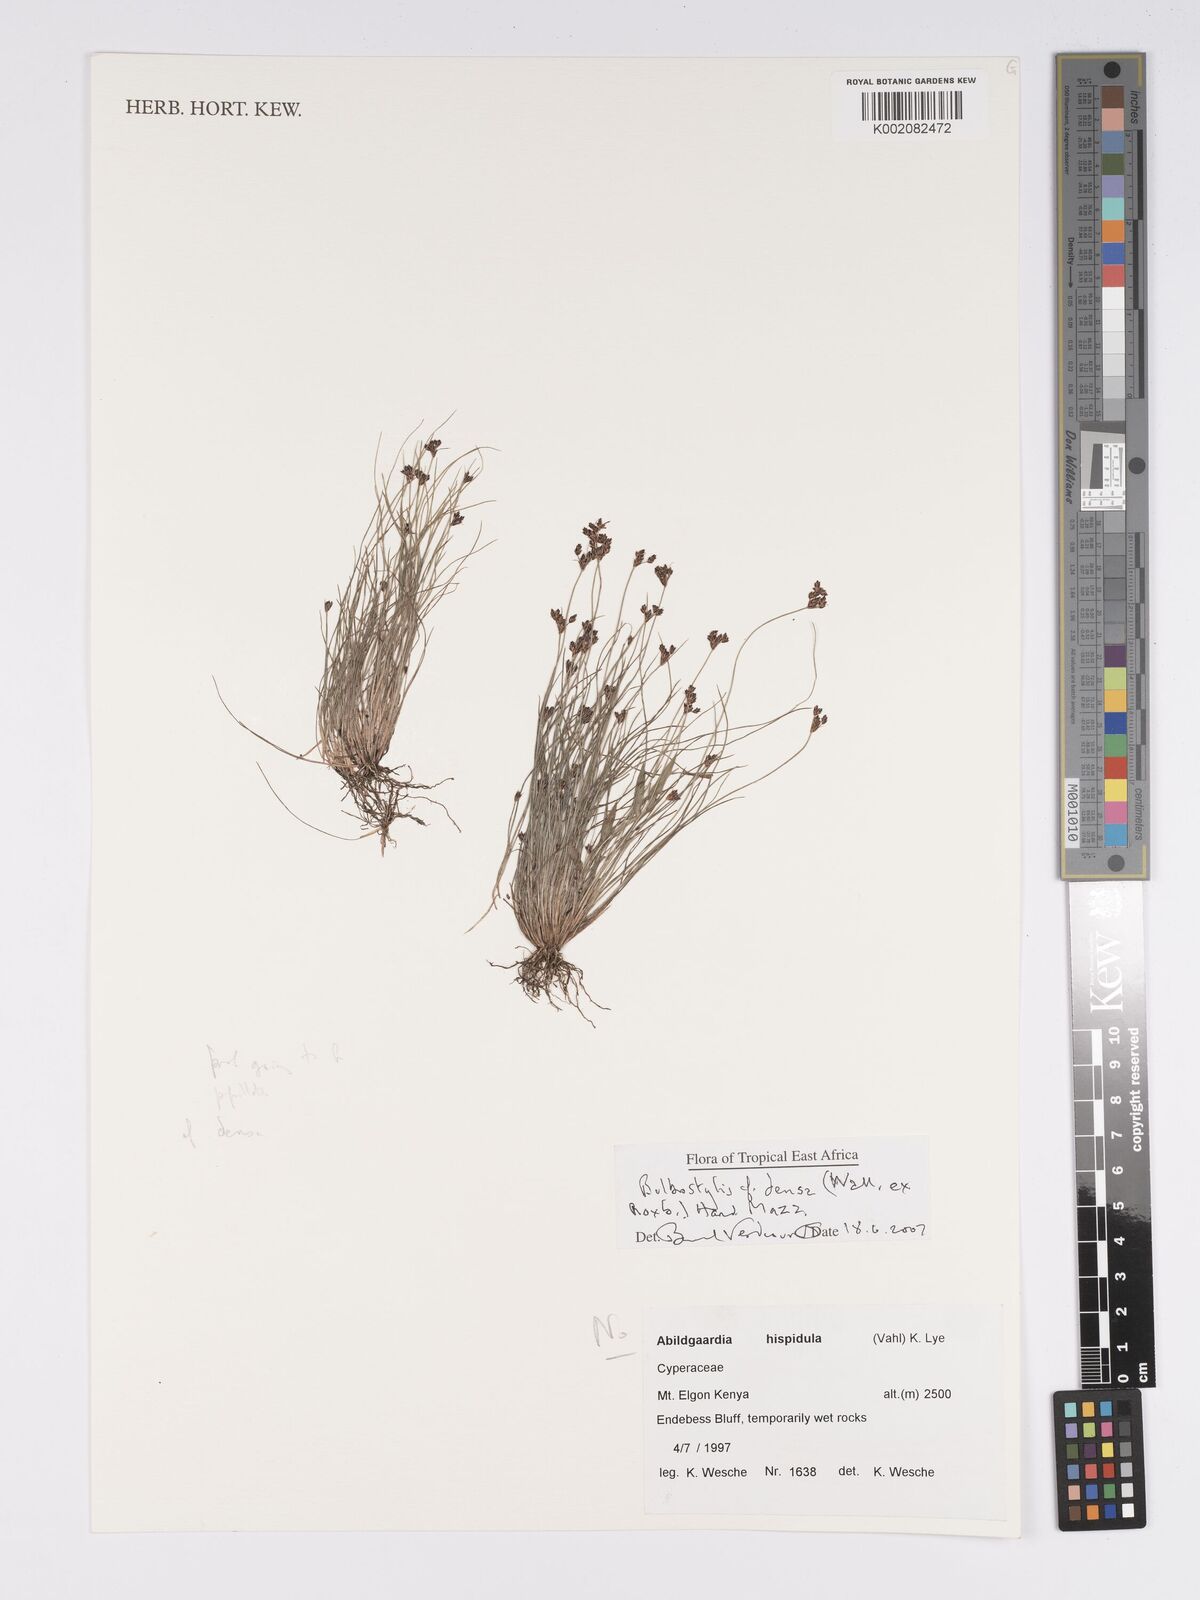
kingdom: Plantae
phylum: Tracheophyta
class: Liliopsida
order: Poales
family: Cyperaceae
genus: Bulbostylis
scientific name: Bulbostylis densa
